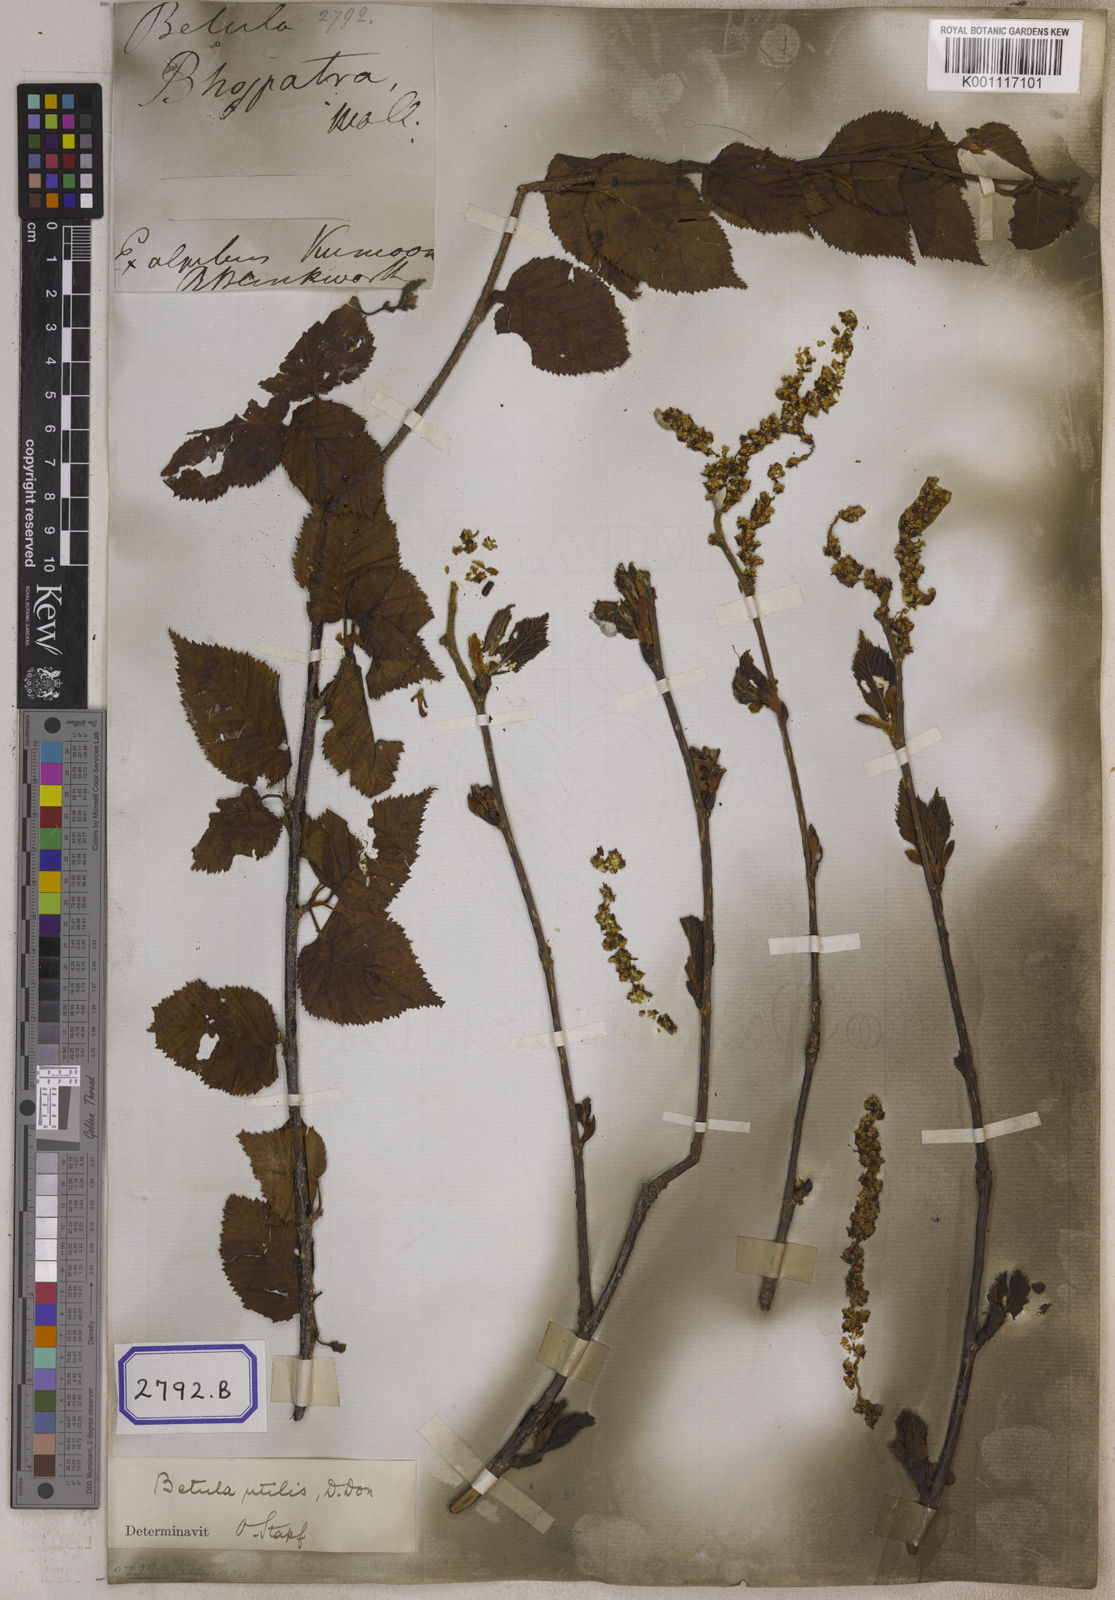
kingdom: Plantae
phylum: Tracheophyta
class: Magnoliopsida
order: Fagales
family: Betulaceae
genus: Betula
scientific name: Betula utilis
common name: Himalayan birch
